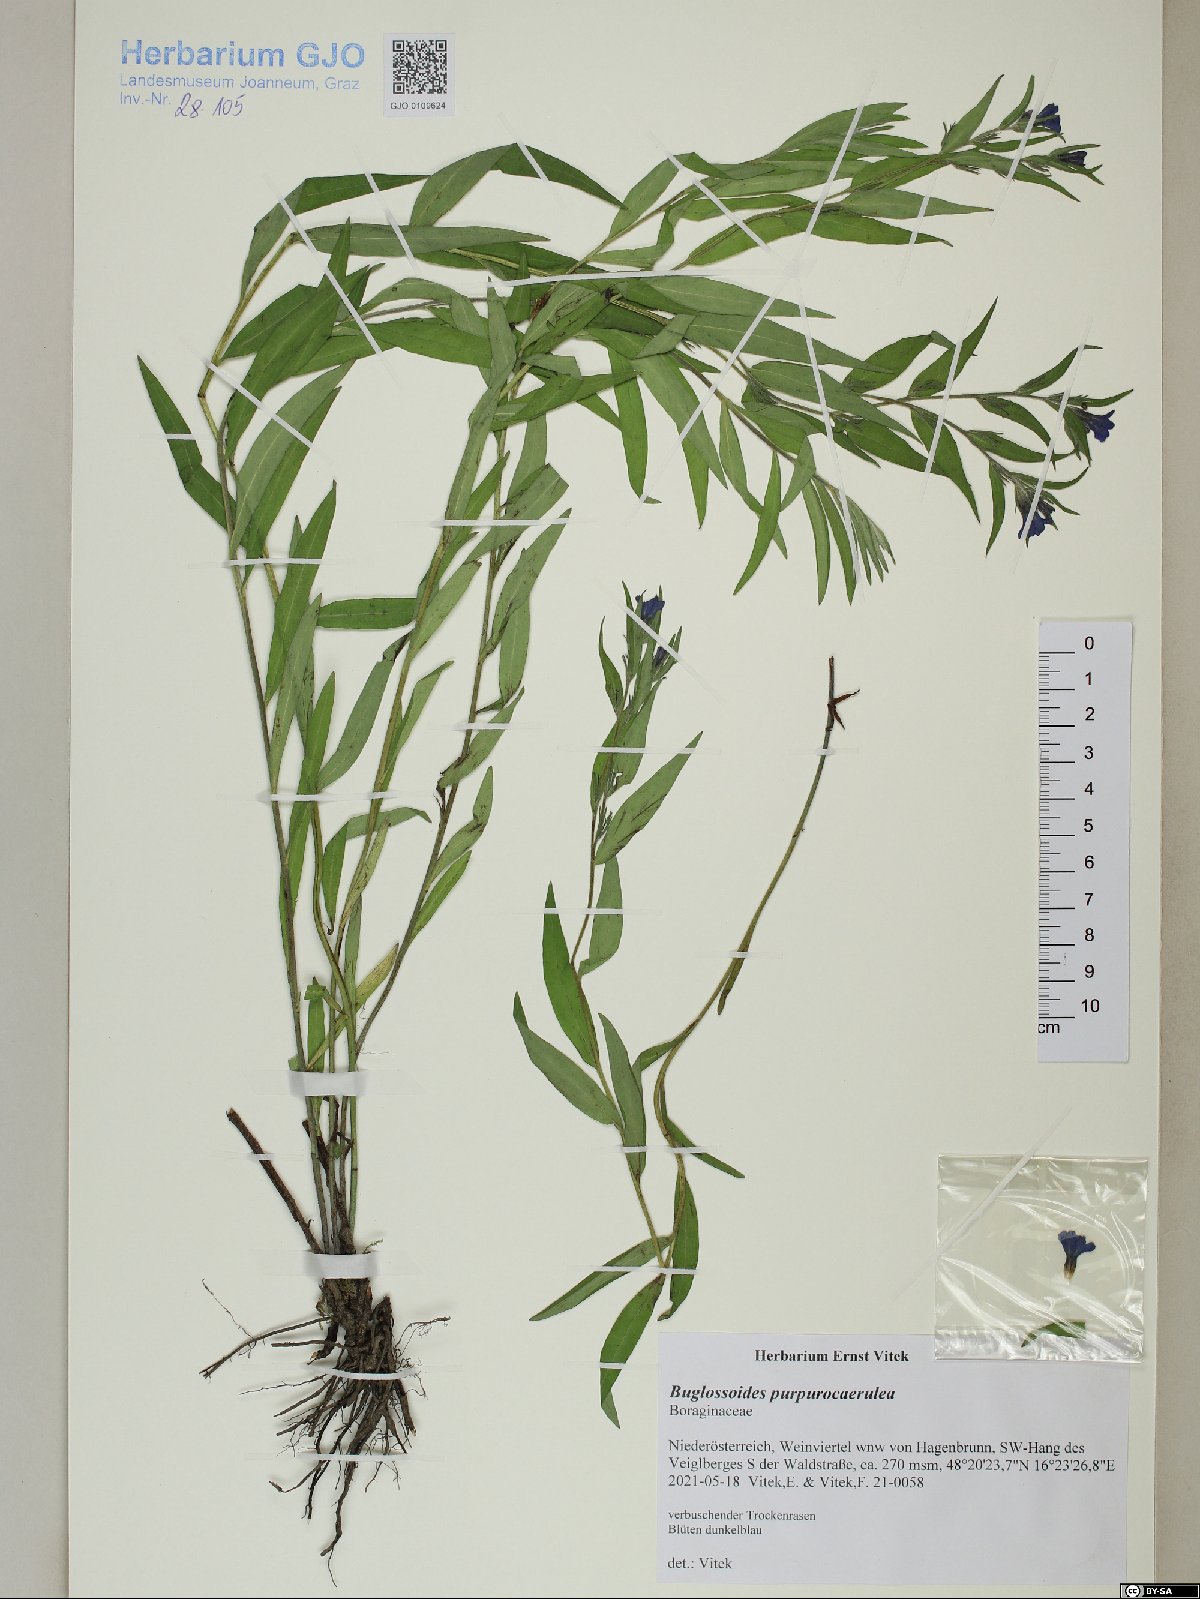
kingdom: Plantae
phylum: Tracheophyta
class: Magnoliopsida
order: Boraginales
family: Boraginaceae
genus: Aegonychon
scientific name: Aegonychon purpurocaeruleum
